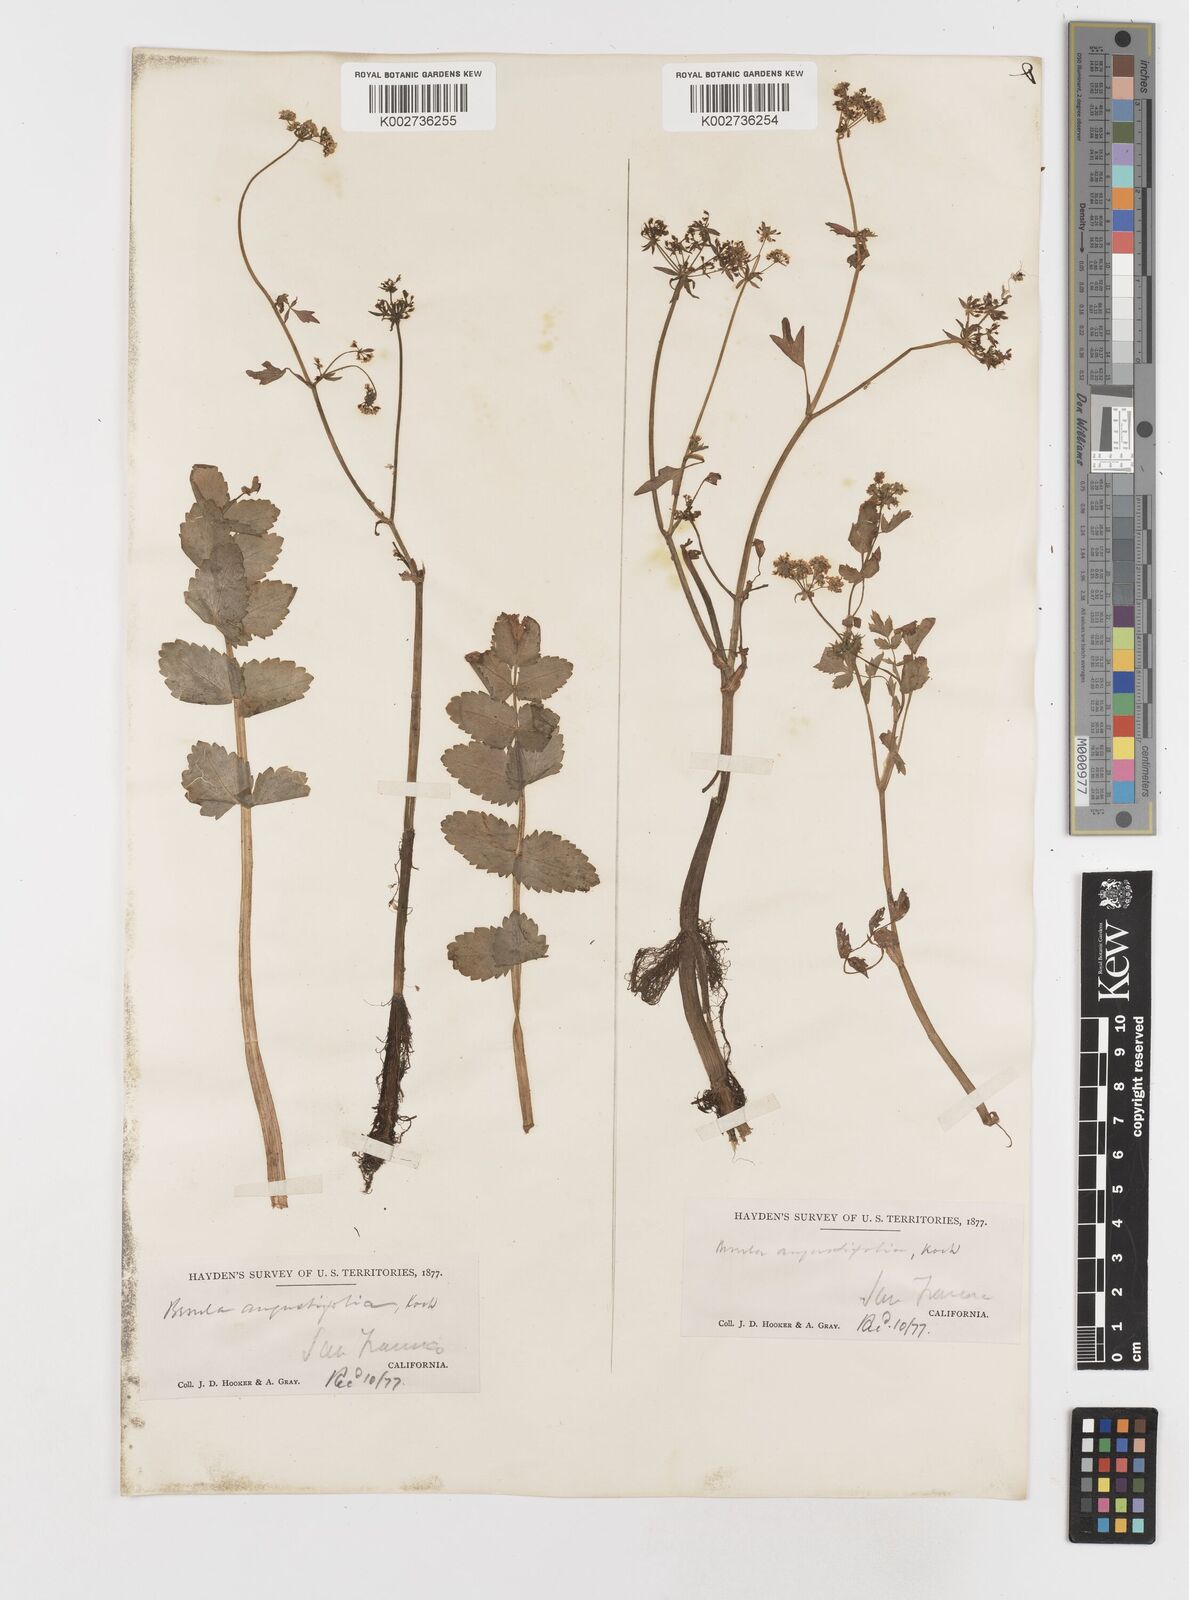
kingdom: Plantae
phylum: Tracheophyta
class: Magnoliopsida
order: Apiales
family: Apiaceae
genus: Berula
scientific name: Berula erecta
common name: Lesser water-parsnip
